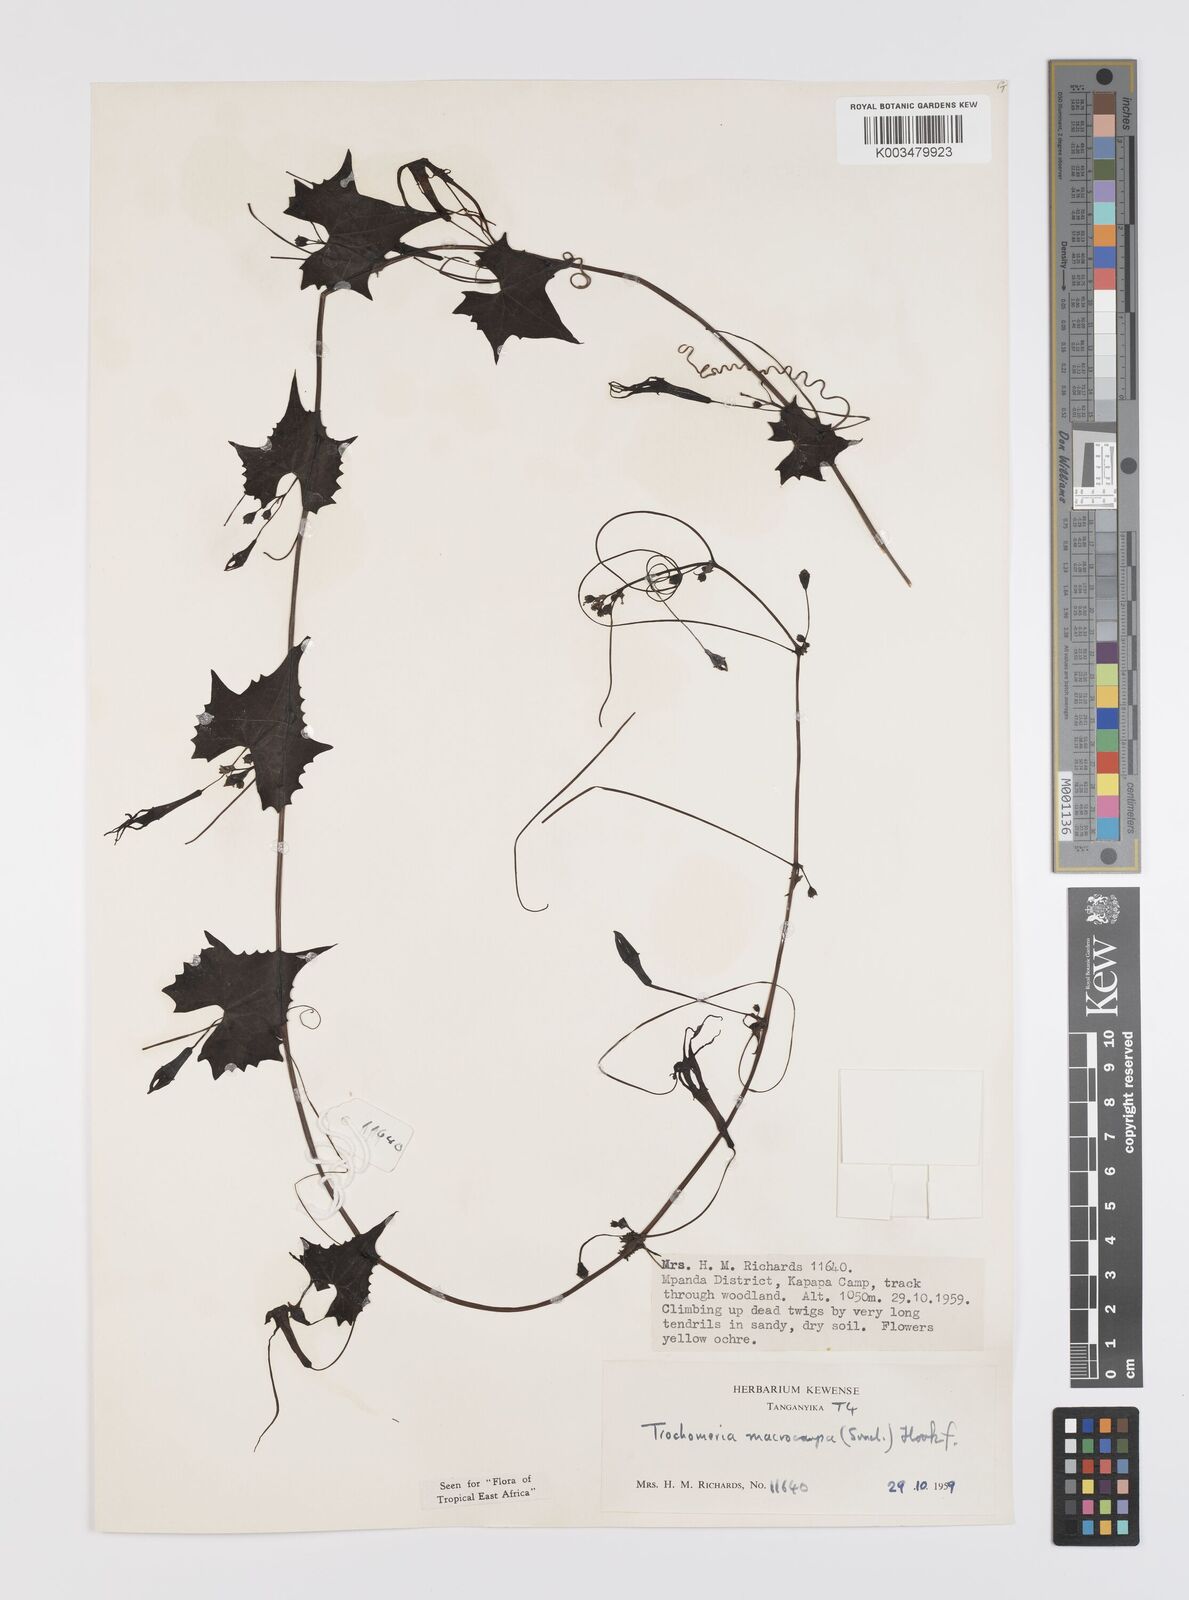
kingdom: Plantae
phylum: Tracheophyta
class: Magnoliopsida
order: Cucurbitales
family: Cucurbitaceae
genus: Trochomeria
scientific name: Trochomeria macrocarpa
